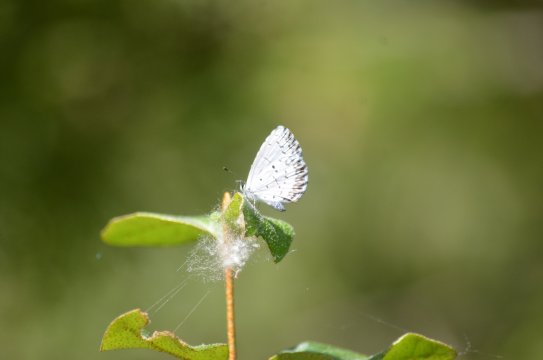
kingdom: Animalia
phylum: Arthropoda
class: Insecta
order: Lepidoptera
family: Lycaenidae
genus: Cyaniris
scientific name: Cyaniris neglecta
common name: Summer Azure
